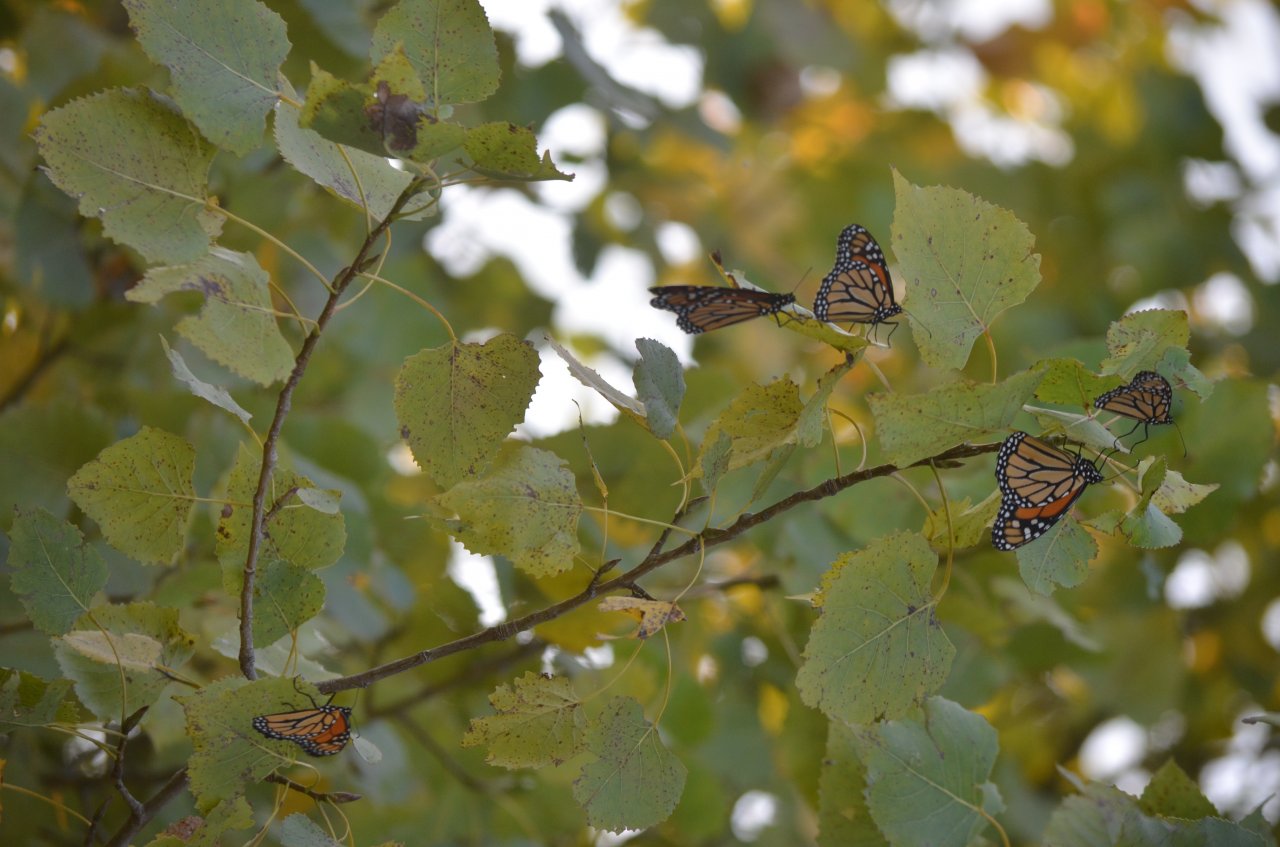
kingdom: Animalia
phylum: Arthropoda
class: Insecta
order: Lepidoptera
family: Nymphalidae
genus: Danaus
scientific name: Danaus plexippus
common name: Monarch
